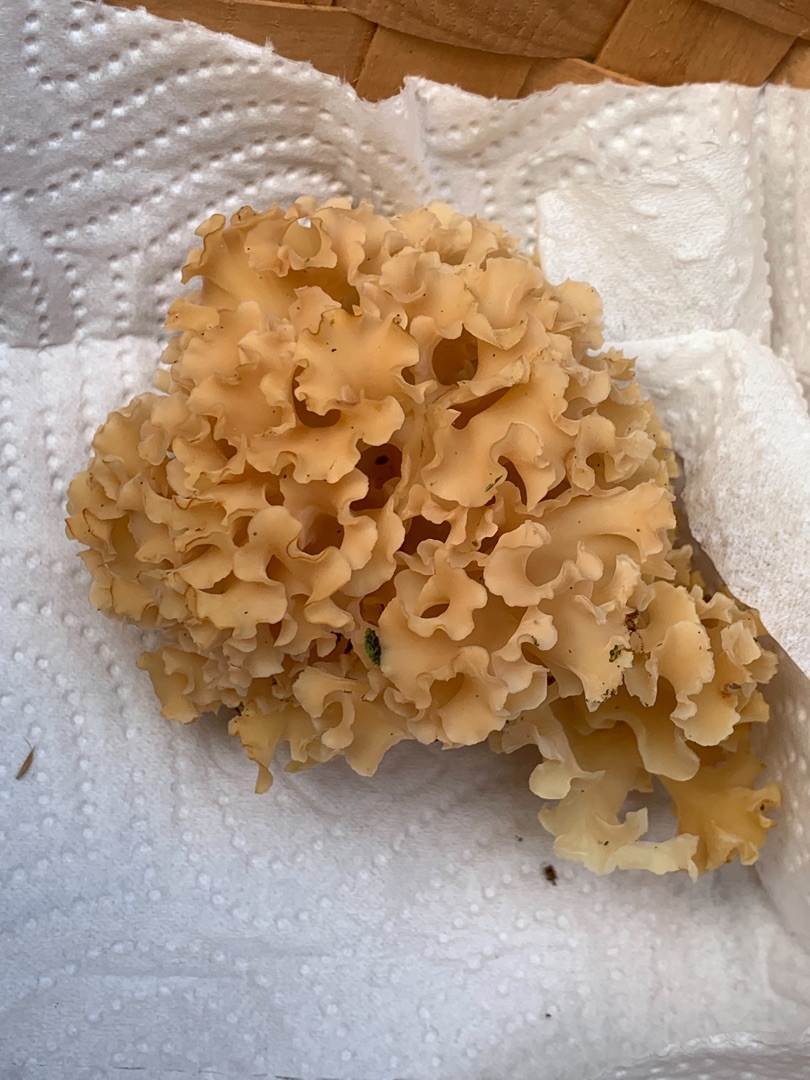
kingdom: Fungi
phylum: Basidiomycota
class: Agaricomycetes
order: Polyporales
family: Sparassidaceae
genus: Sparassis
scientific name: Sparassis crispa
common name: Kruset blomkålssvamp
